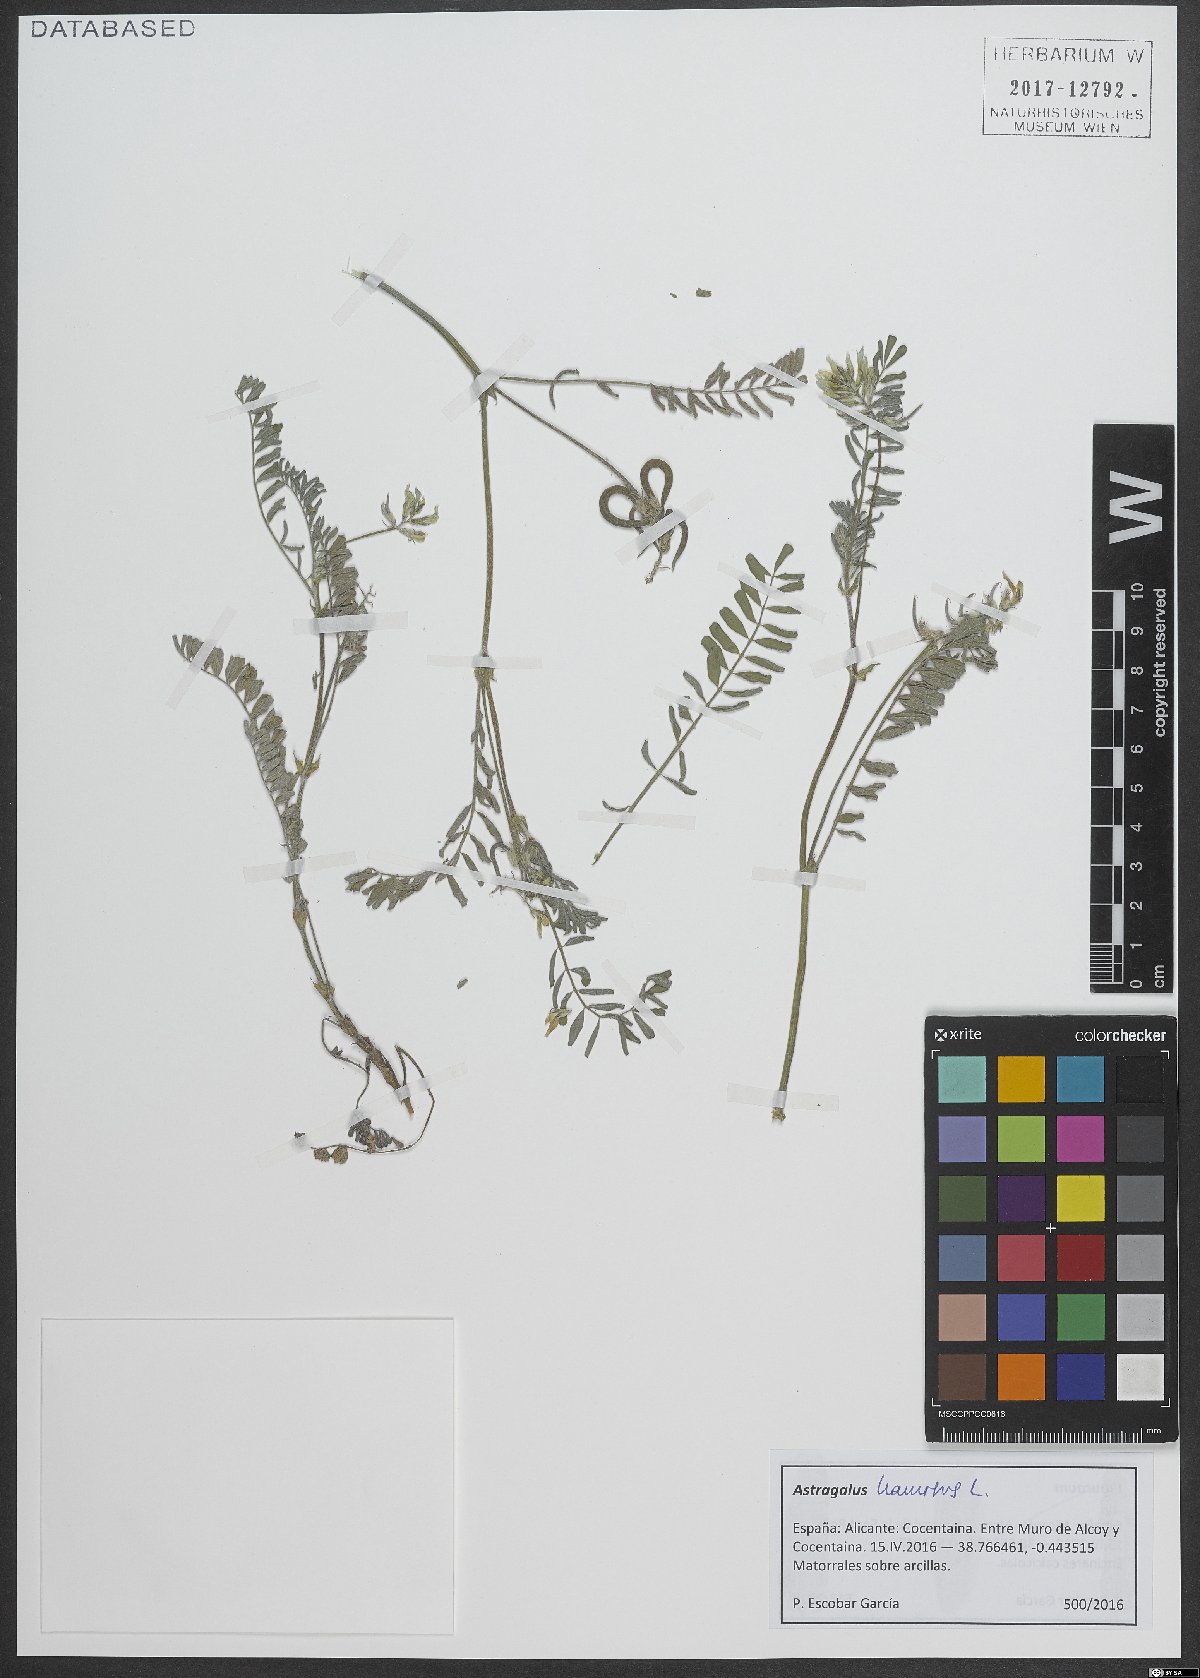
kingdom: Plantae
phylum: Tracheophyta
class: Magnoliopsida
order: Fabales
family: Fabaceae
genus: Astragalus
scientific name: Astragalus hamosus
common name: European milkvetch
